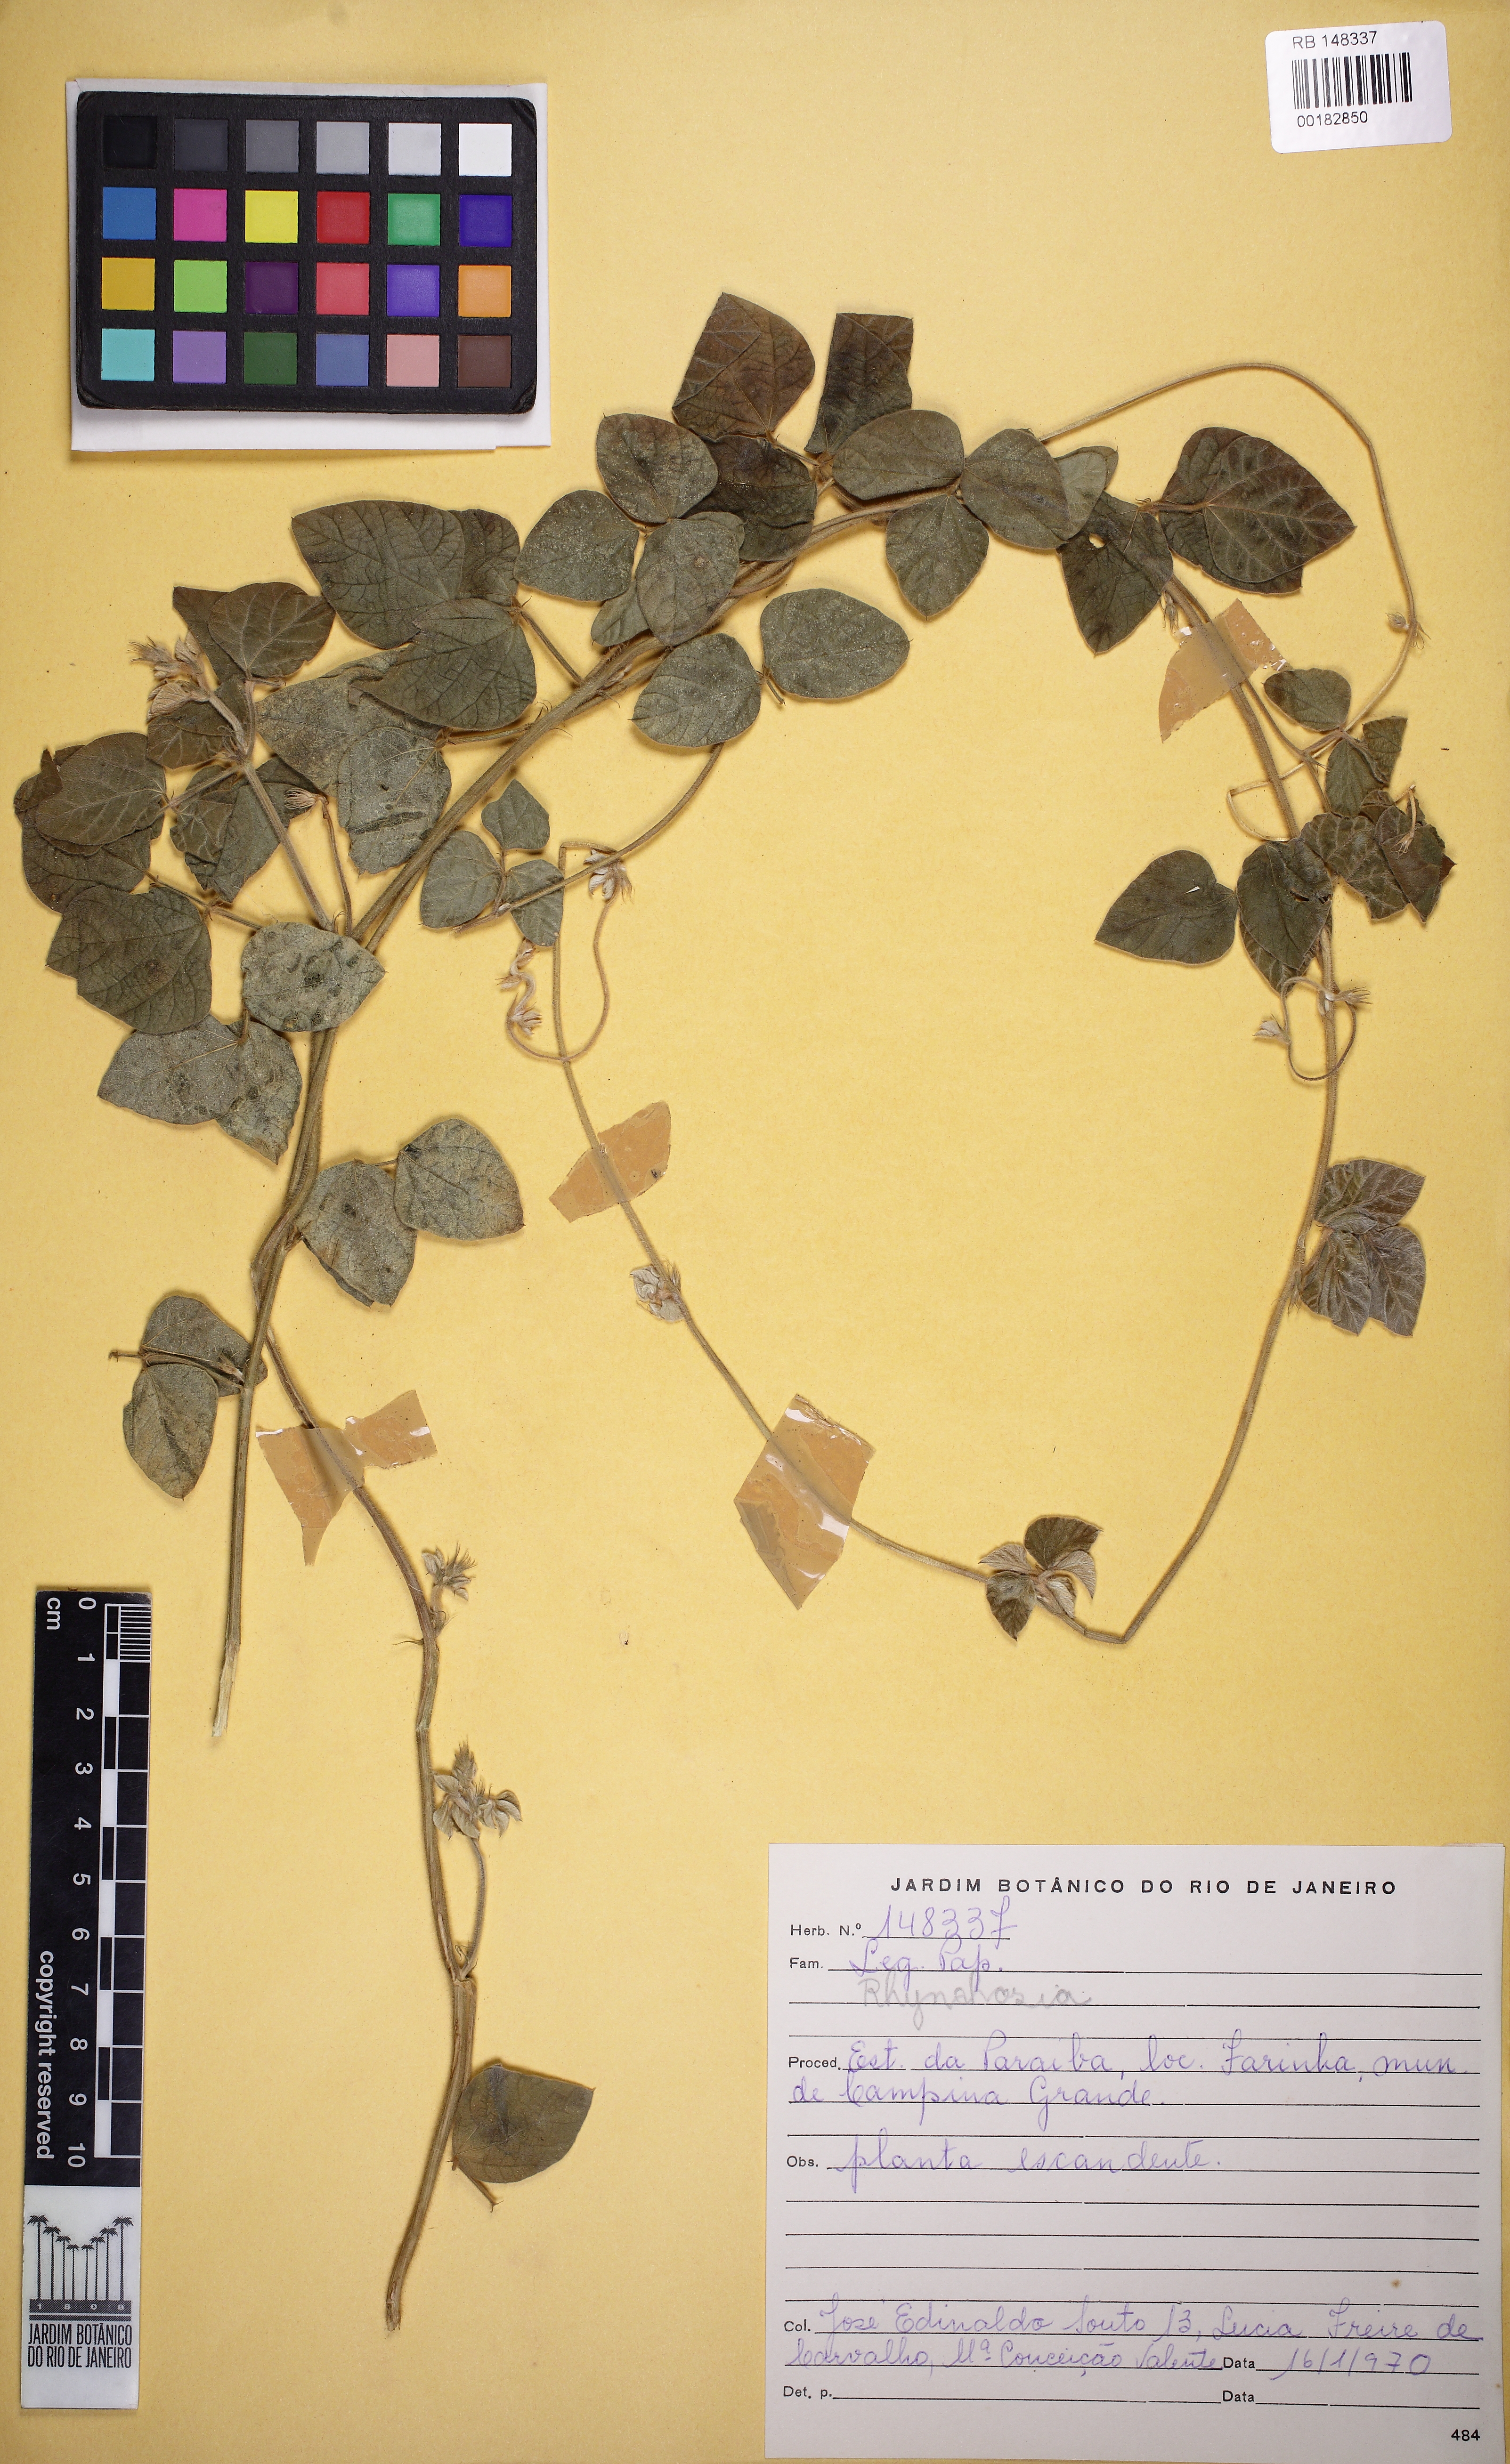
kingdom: Plantae
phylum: Tracheophyta
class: Magnoliopsida
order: Fabales
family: Fabaceae
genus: Calopogonium
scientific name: Calopogonium
